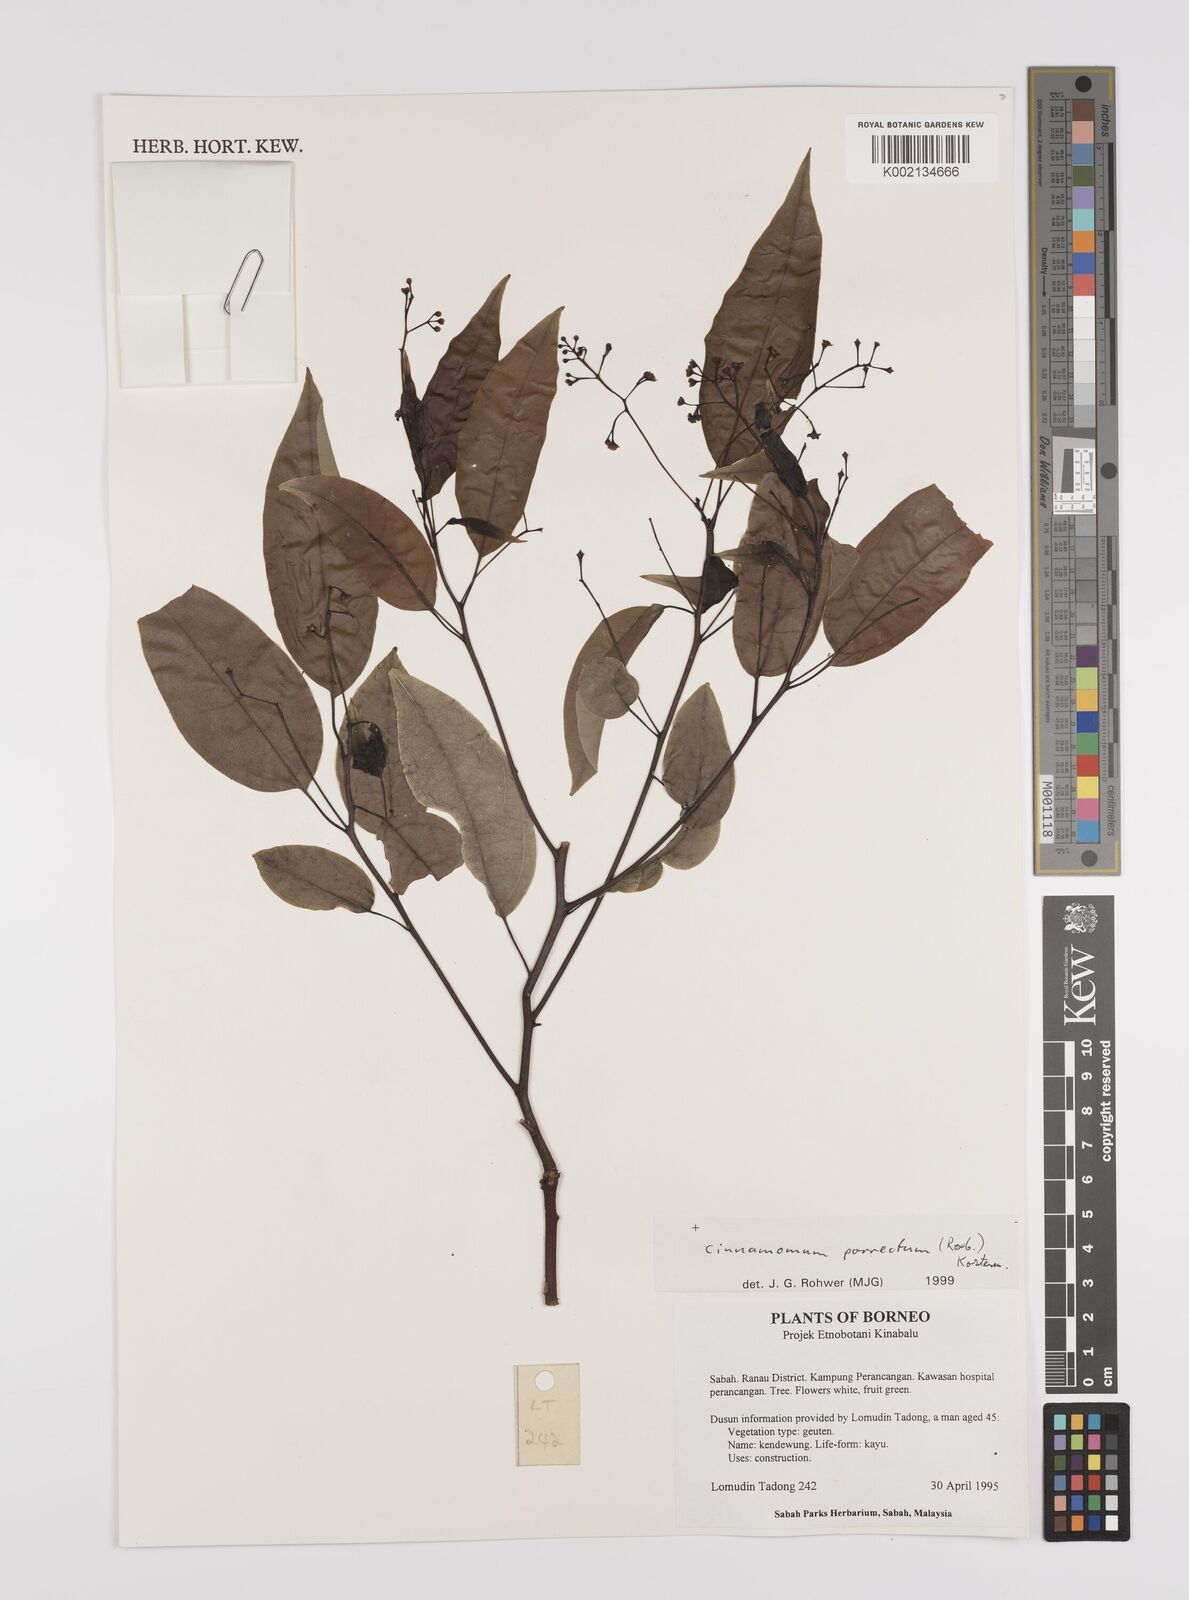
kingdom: Plantae
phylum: Tracheophyta
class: Magnoliopsida
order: Laurales
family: Lauraceae
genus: Cinnamomum
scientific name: Cinnamomum parthenoxylon
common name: Martaban camphor wood
